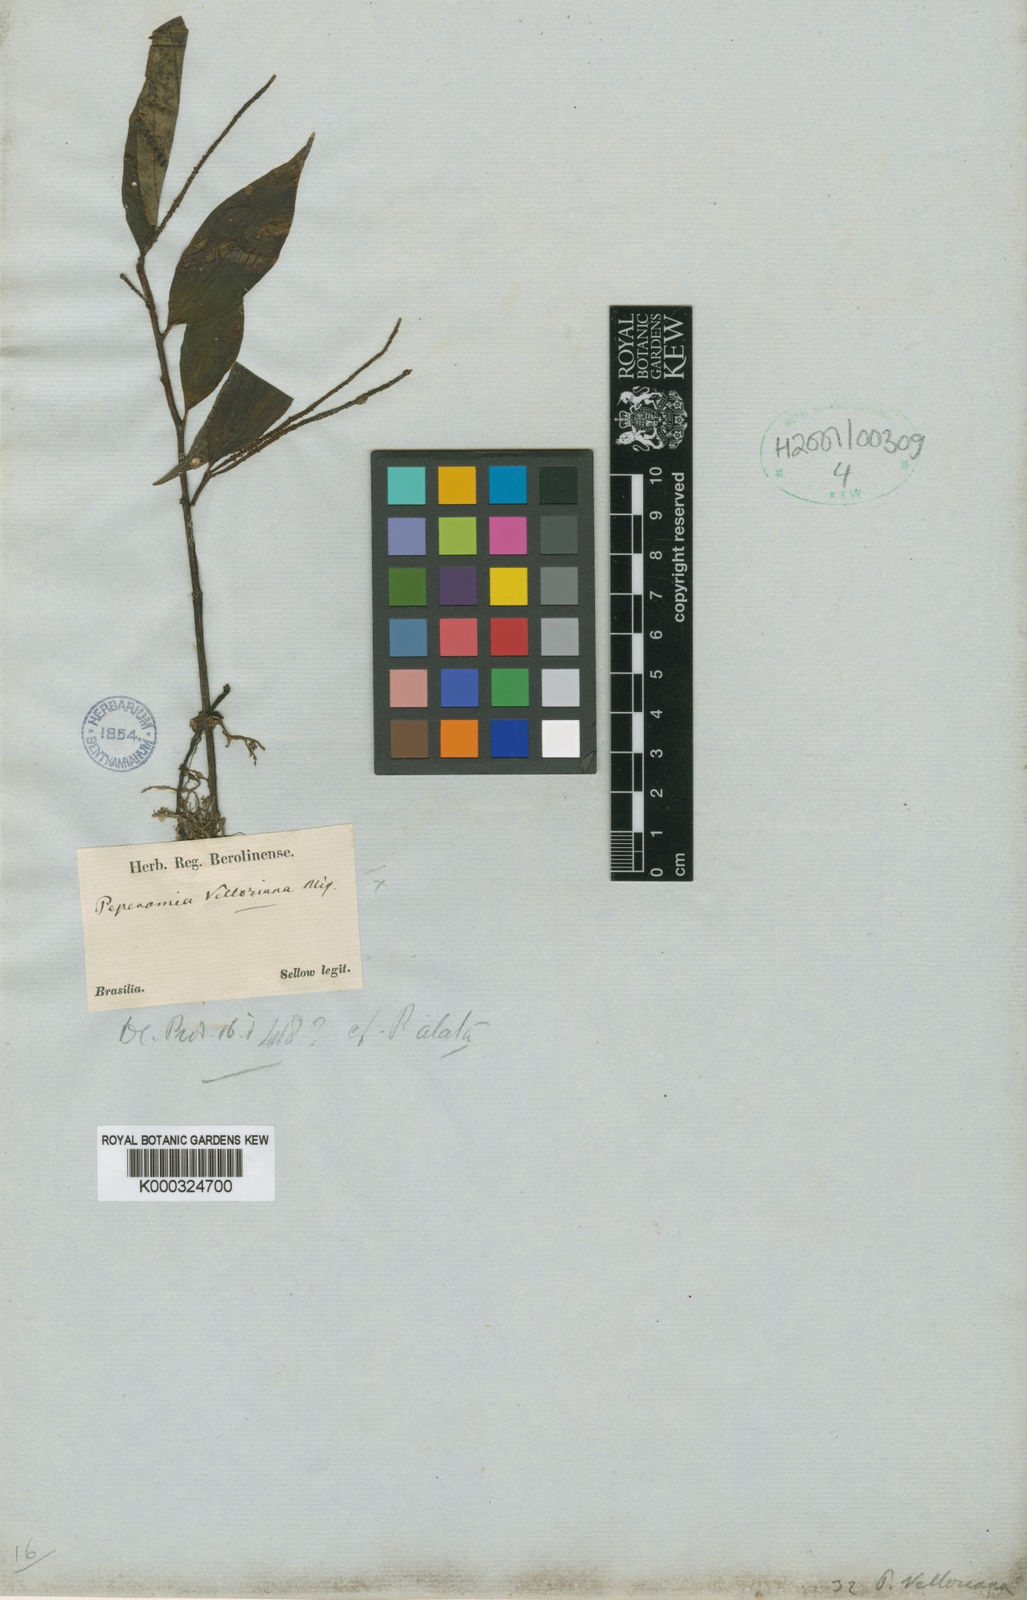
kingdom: Plantae
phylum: Tracheophyta
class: Magnoliopsida
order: Piperales
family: Piperaceae
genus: Peperomia
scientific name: Peperomia velloziana
